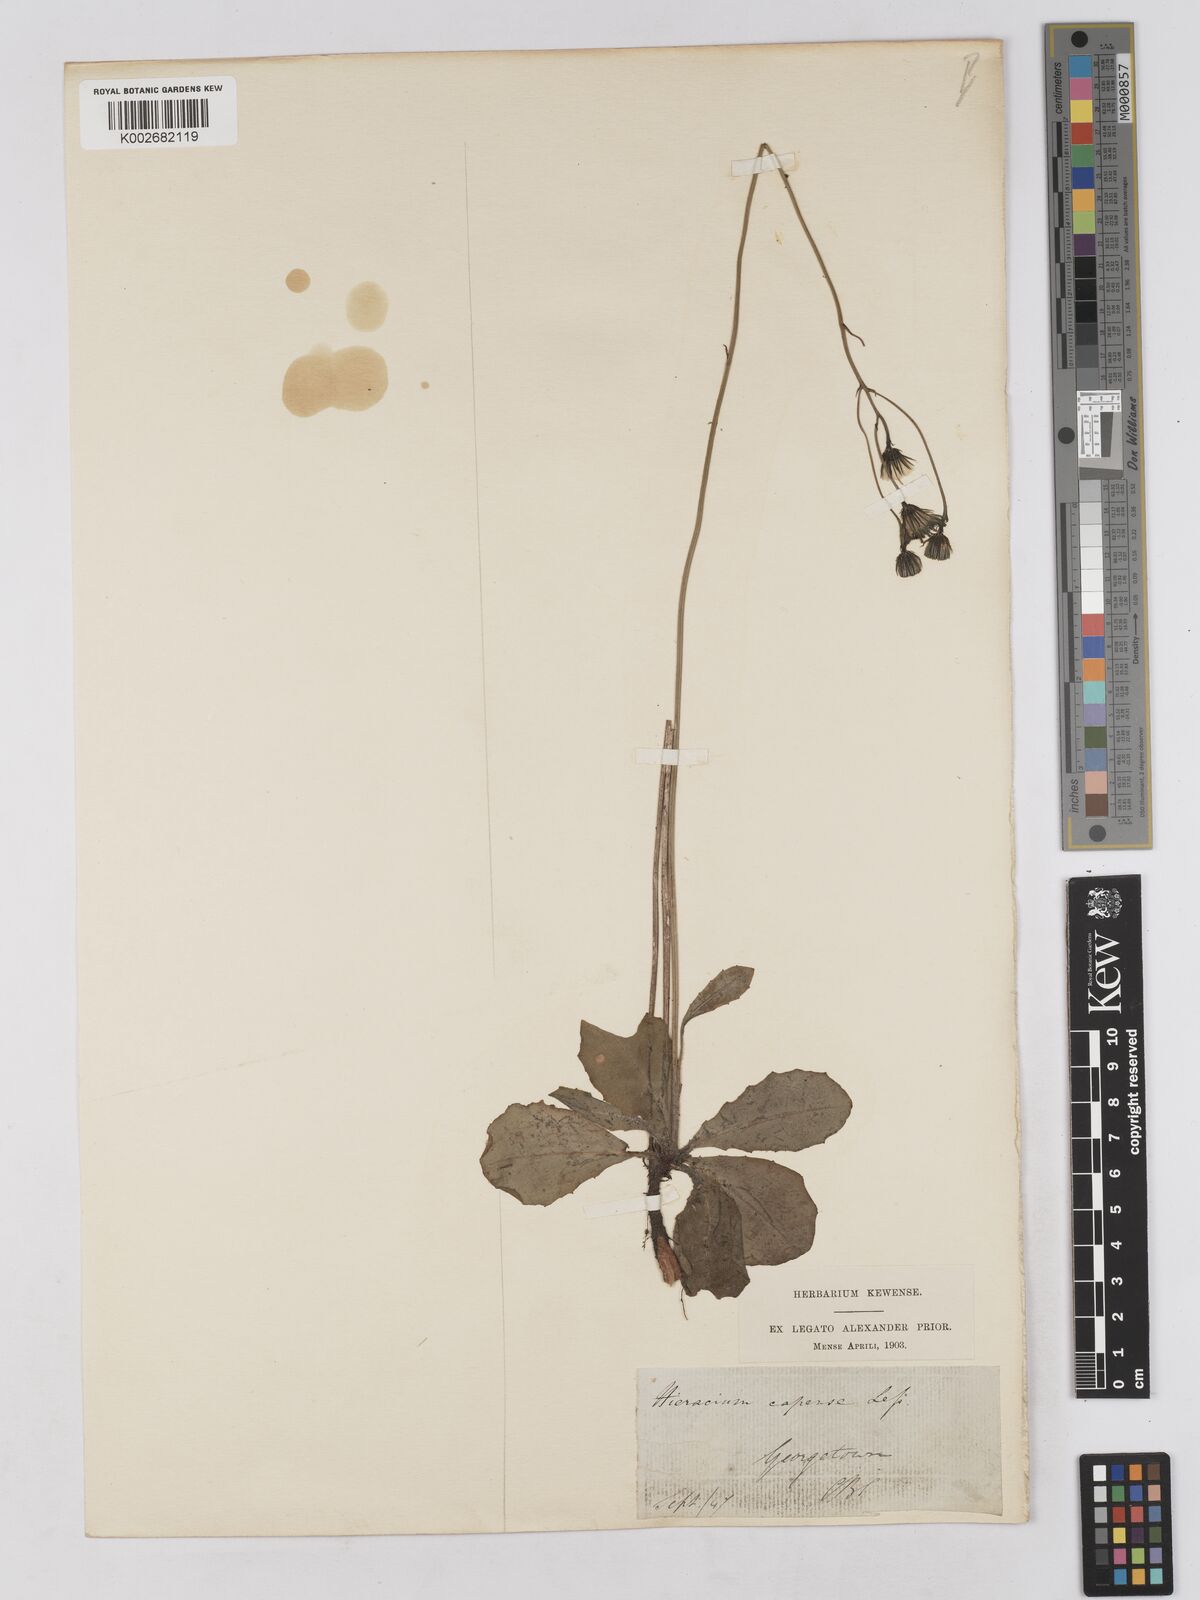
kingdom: Plantae
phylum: Tracheophyta
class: Magnoliopsida
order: Asterales
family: Asteraceae
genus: Tolpis
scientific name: Tolpis capensis
